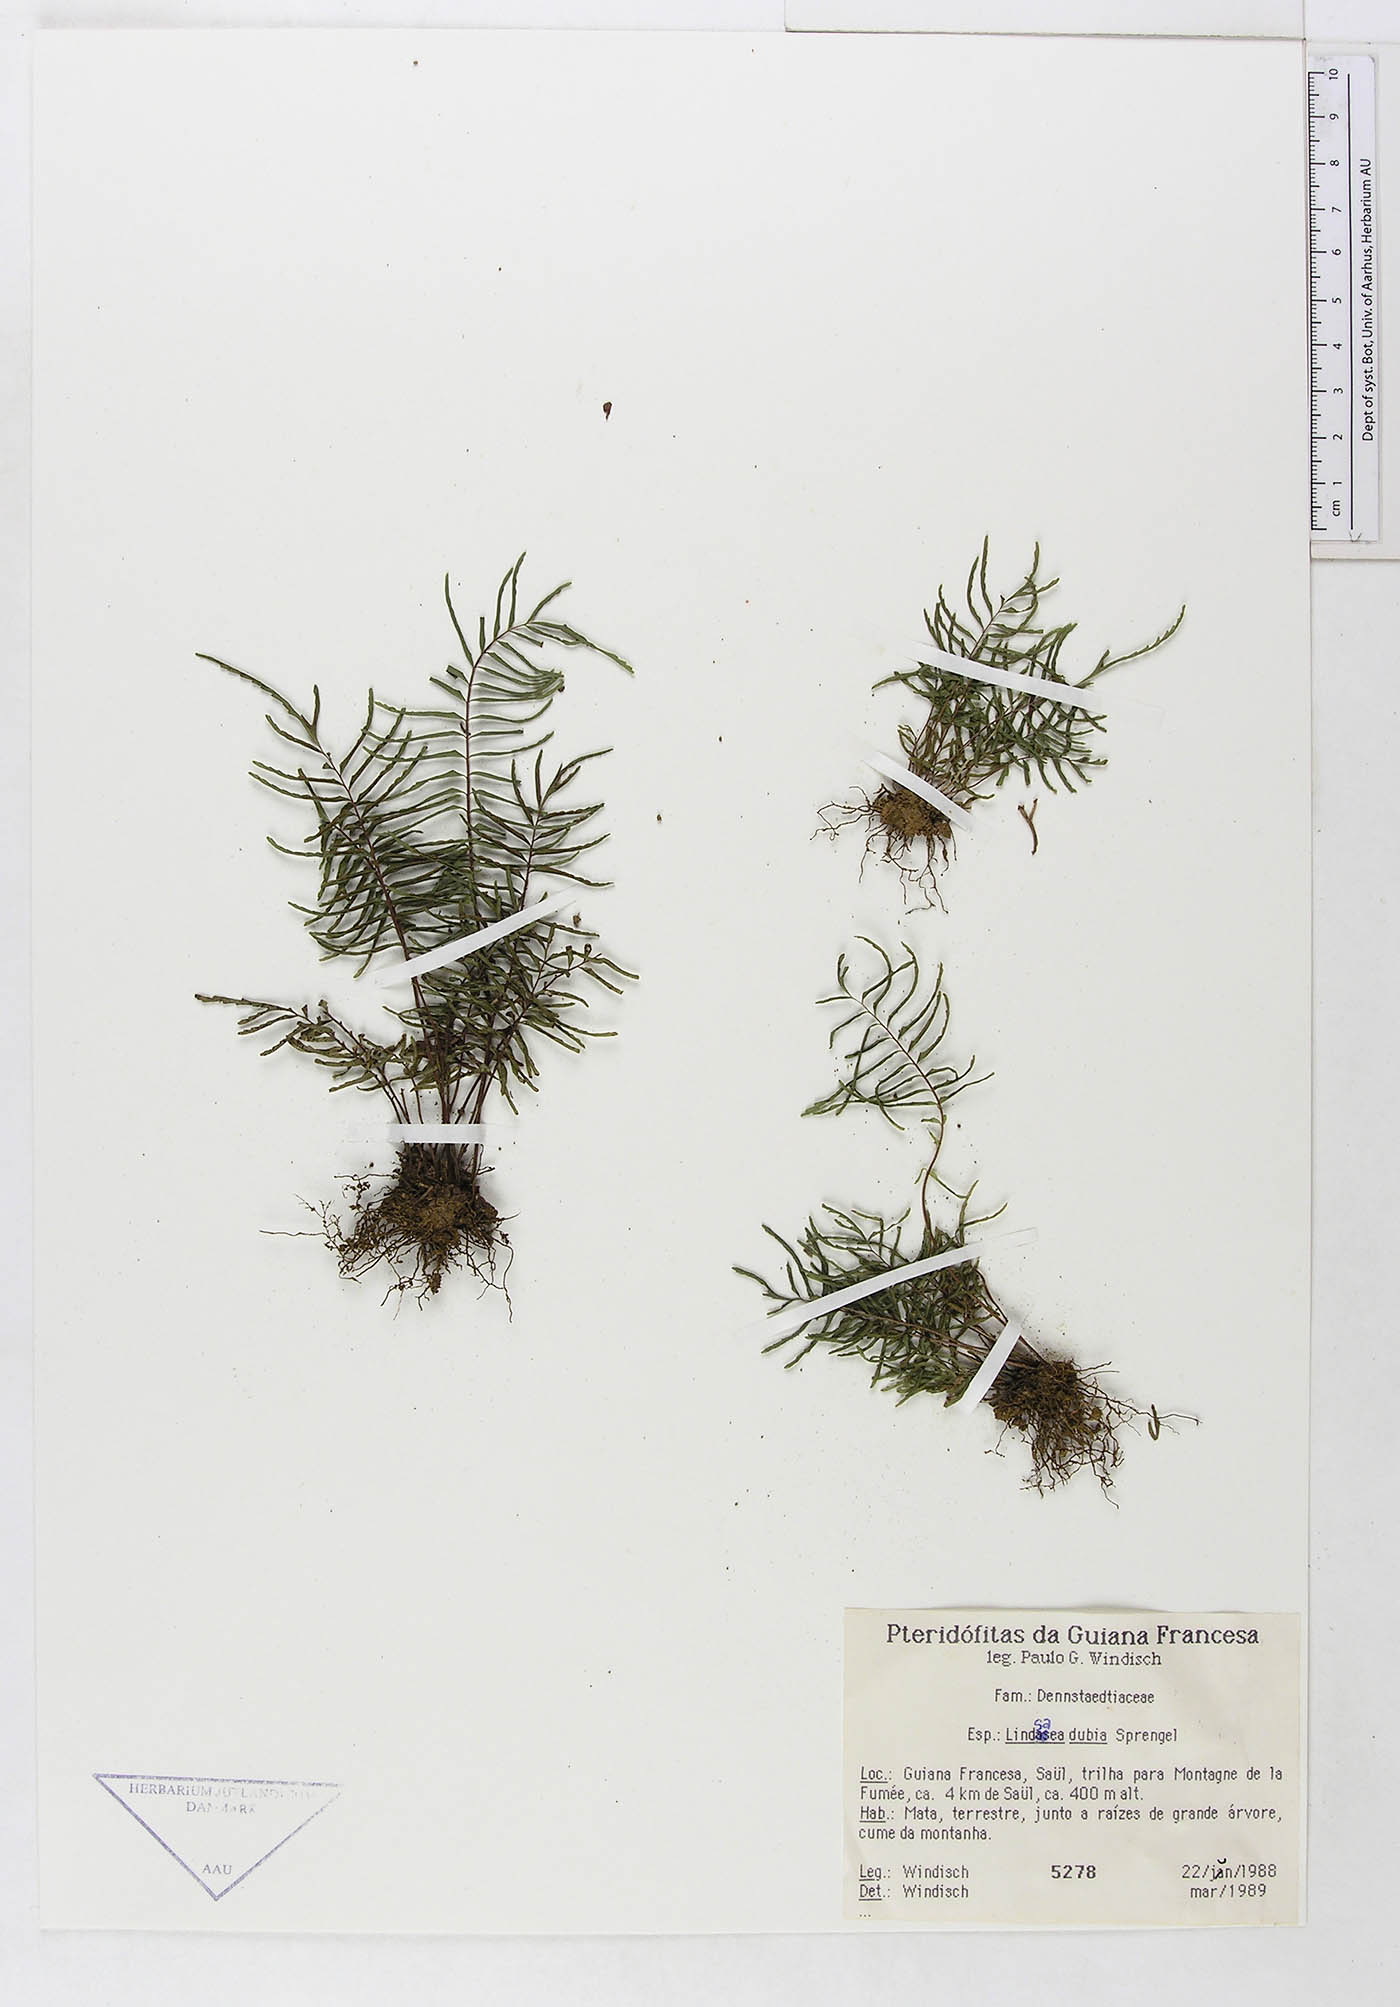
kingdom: Plantae
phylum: Tracheophyta
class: Polypodiopsida
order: Polypodiales
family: Dennstaedtiaceae
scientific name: Dennstaedtiaceae
